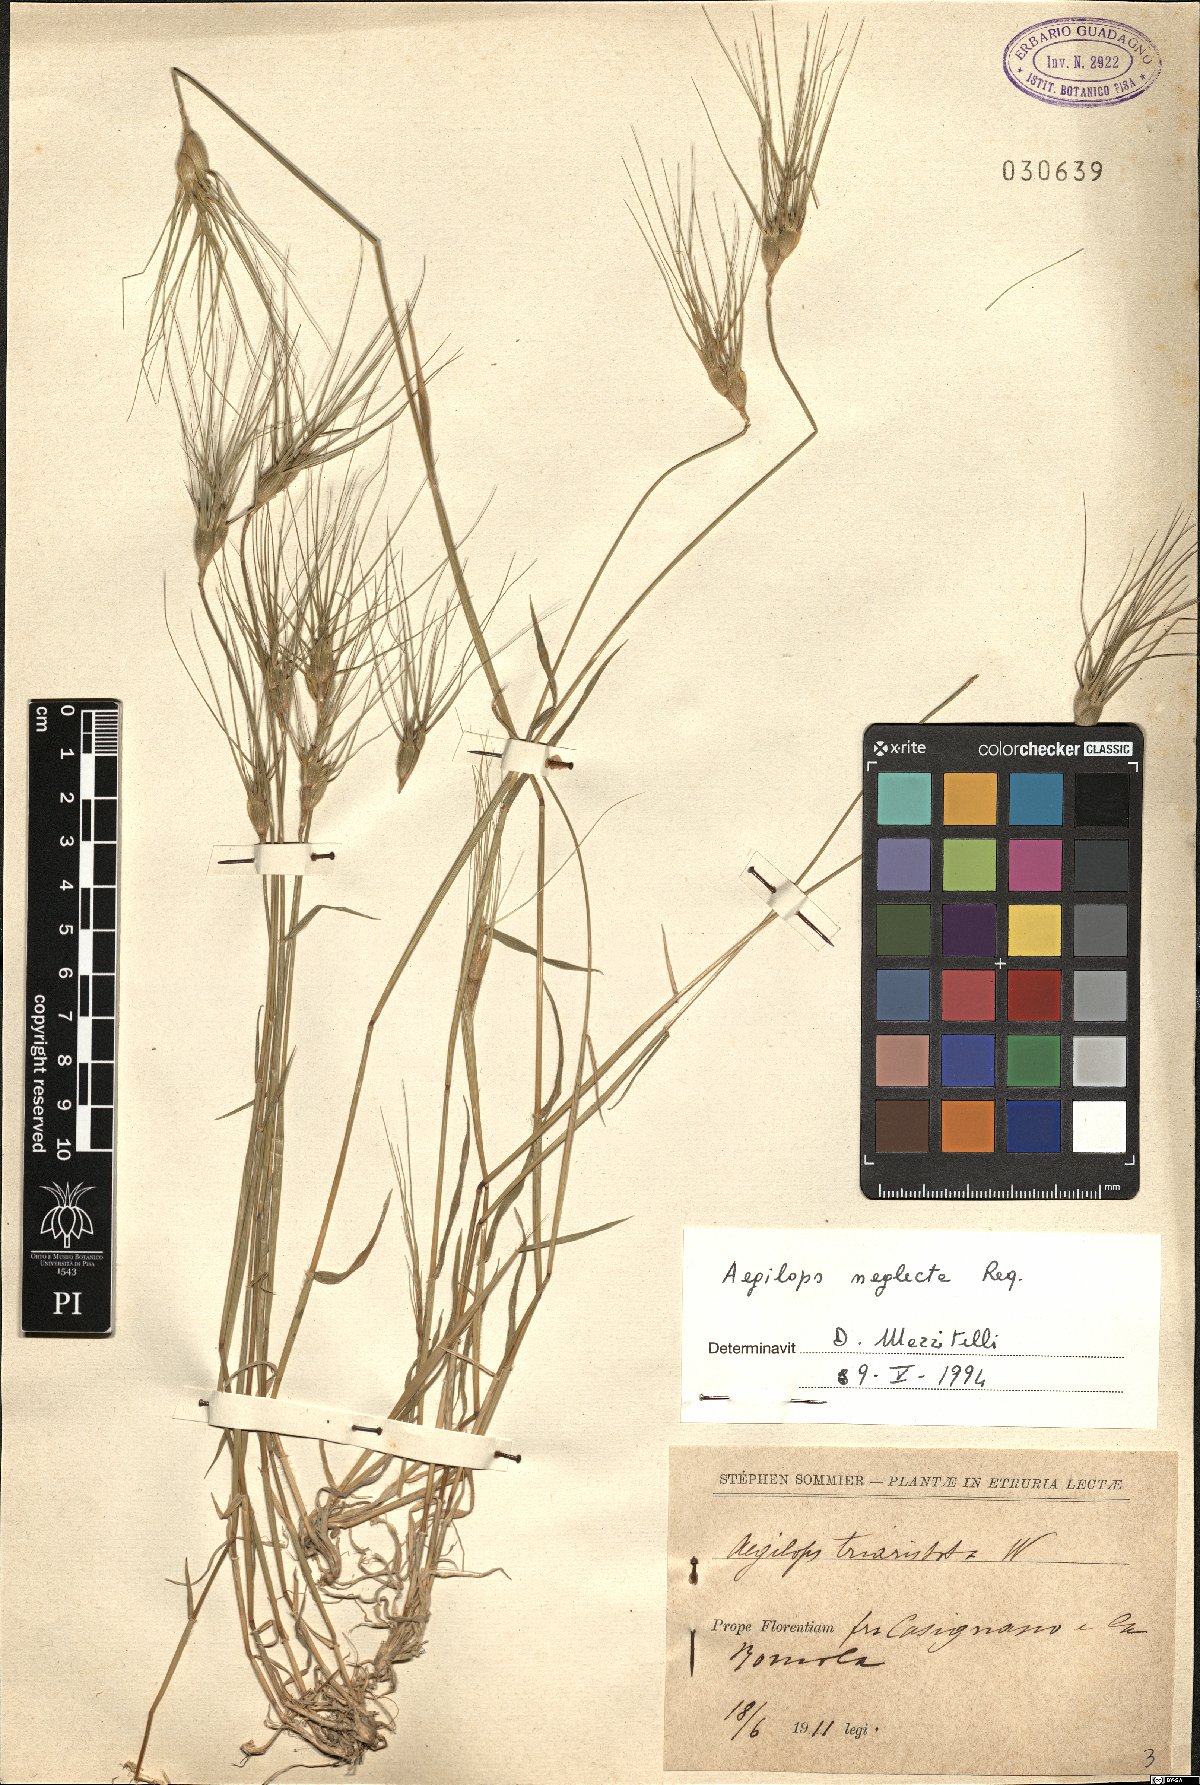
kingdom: Plantae
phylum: Tracheophyta
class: Liliopsida
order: Poales
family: Poaceae
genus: Aegilops
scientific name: Aegilops neglecta
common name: Three-awn goat grass
